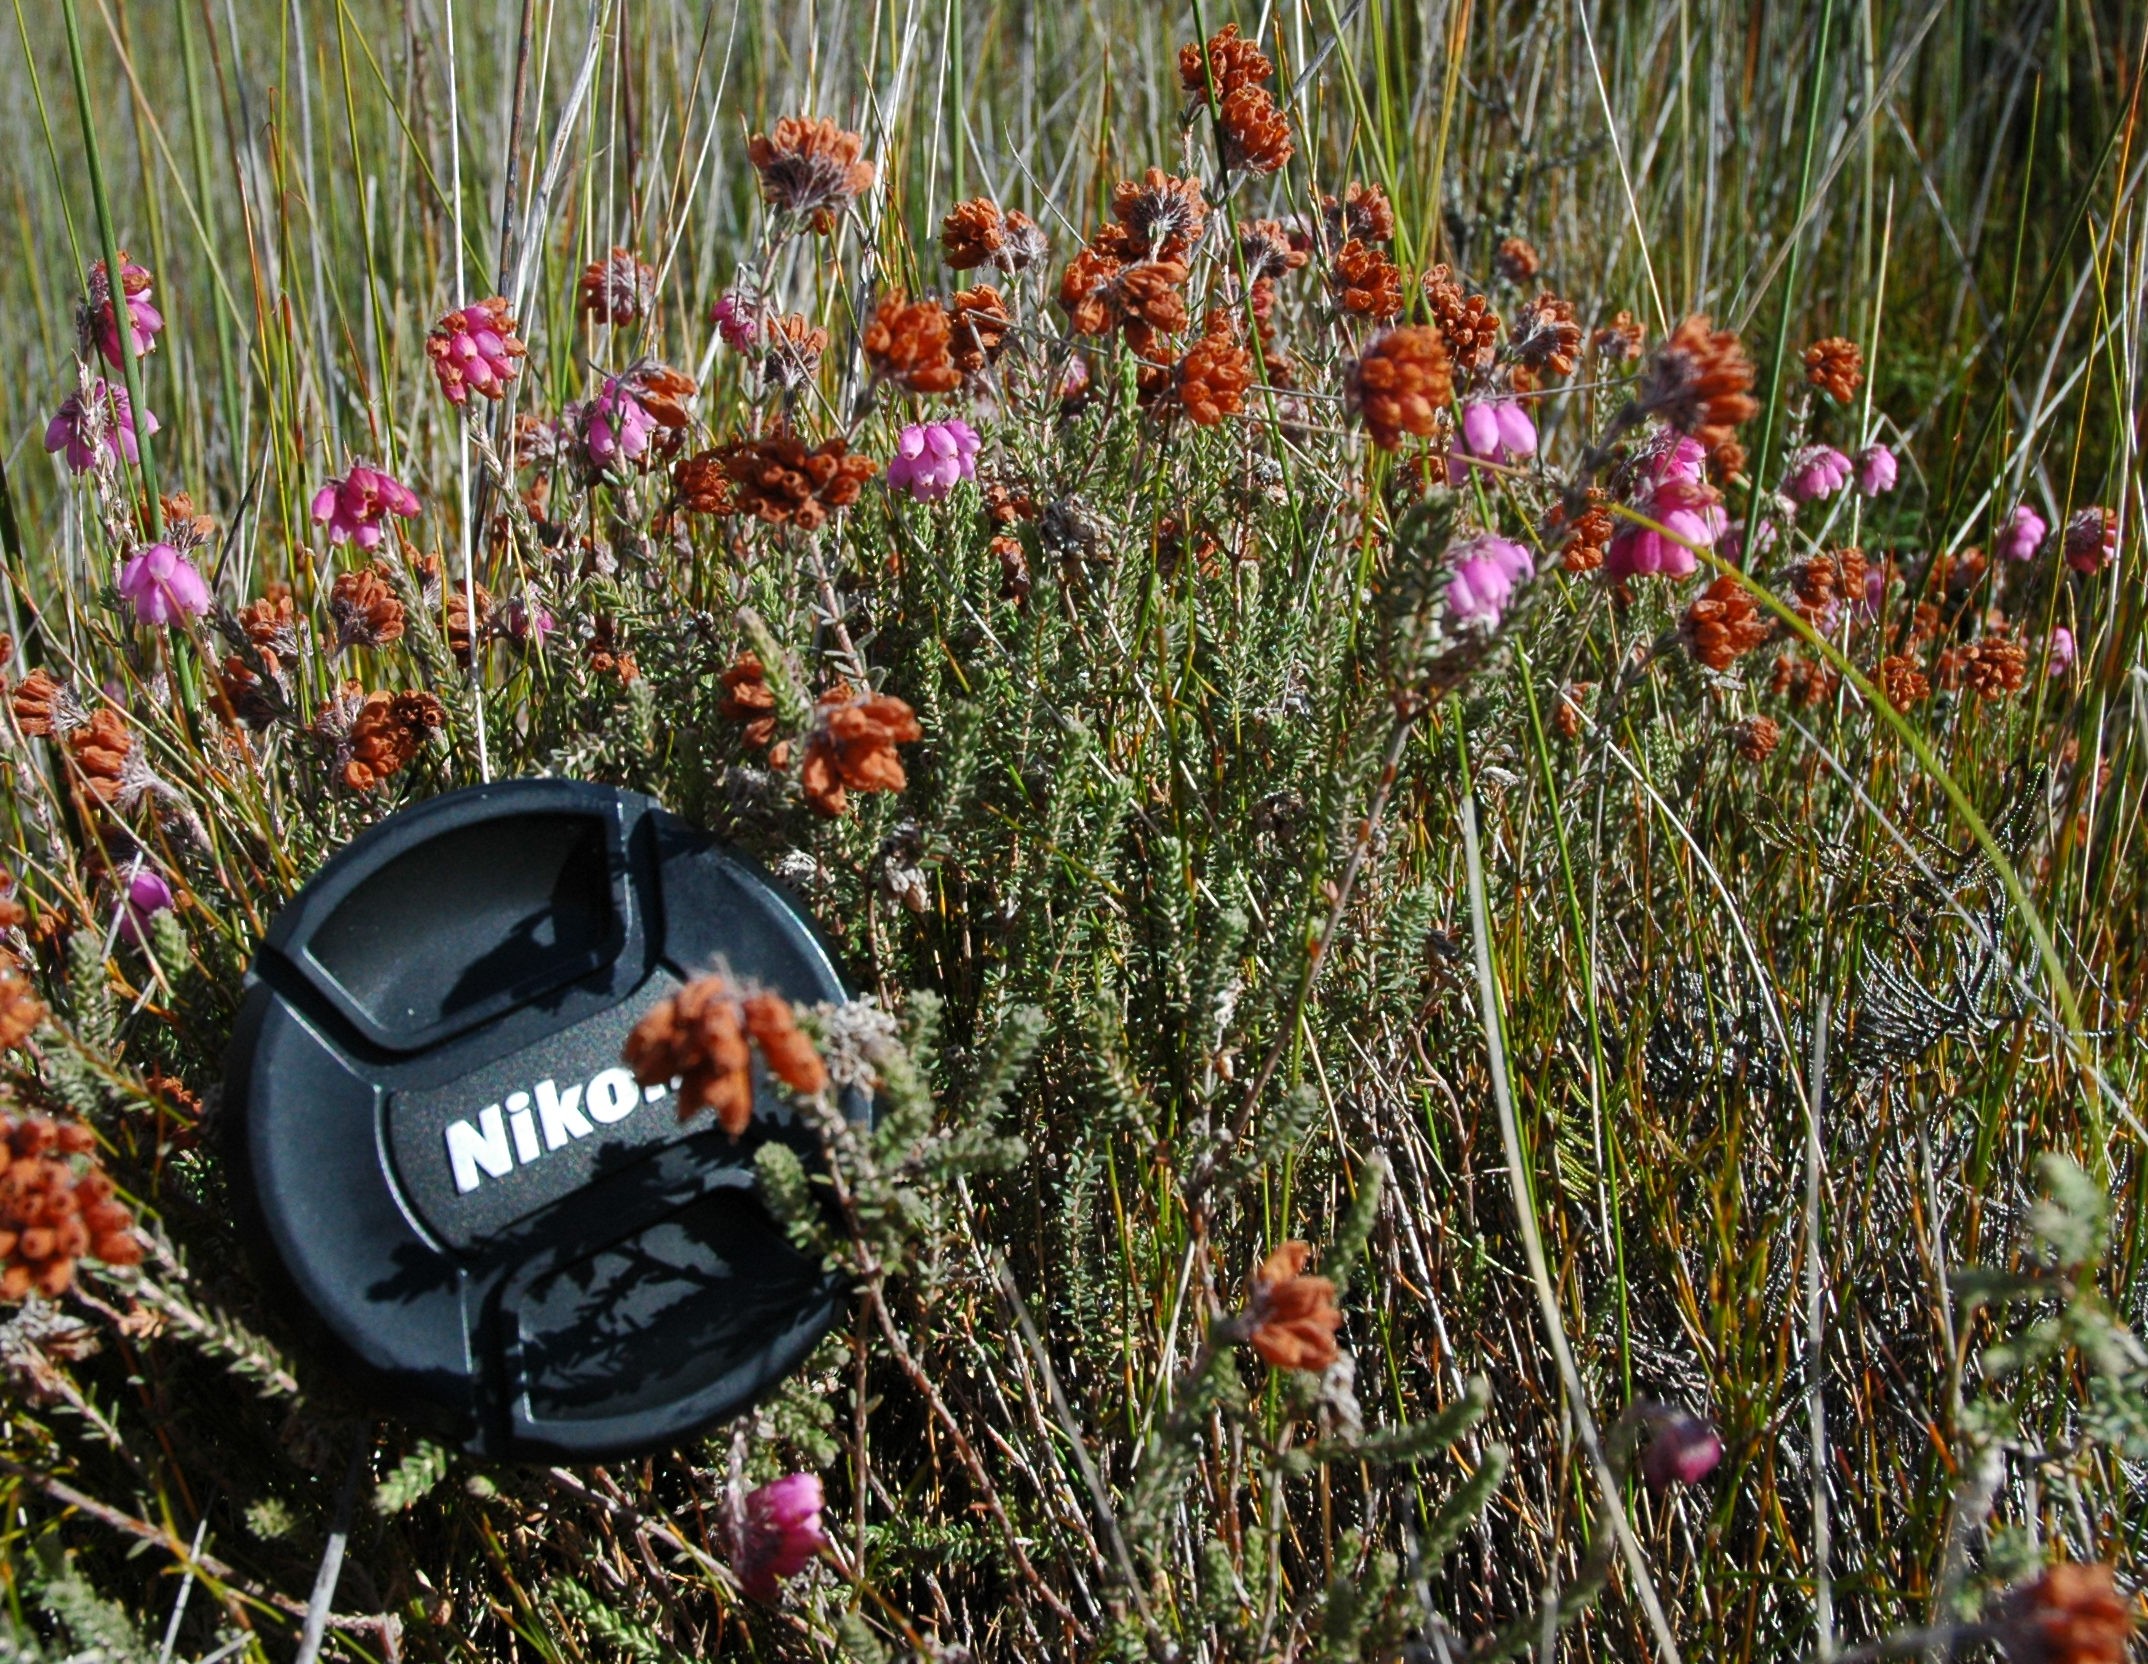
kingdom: Plantae
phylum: Tracheophyta
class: Magnoliopsida
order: Ericales
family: Ericaceae
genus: Erica
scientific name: Erica tetralix
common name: Cross-leaved heath
